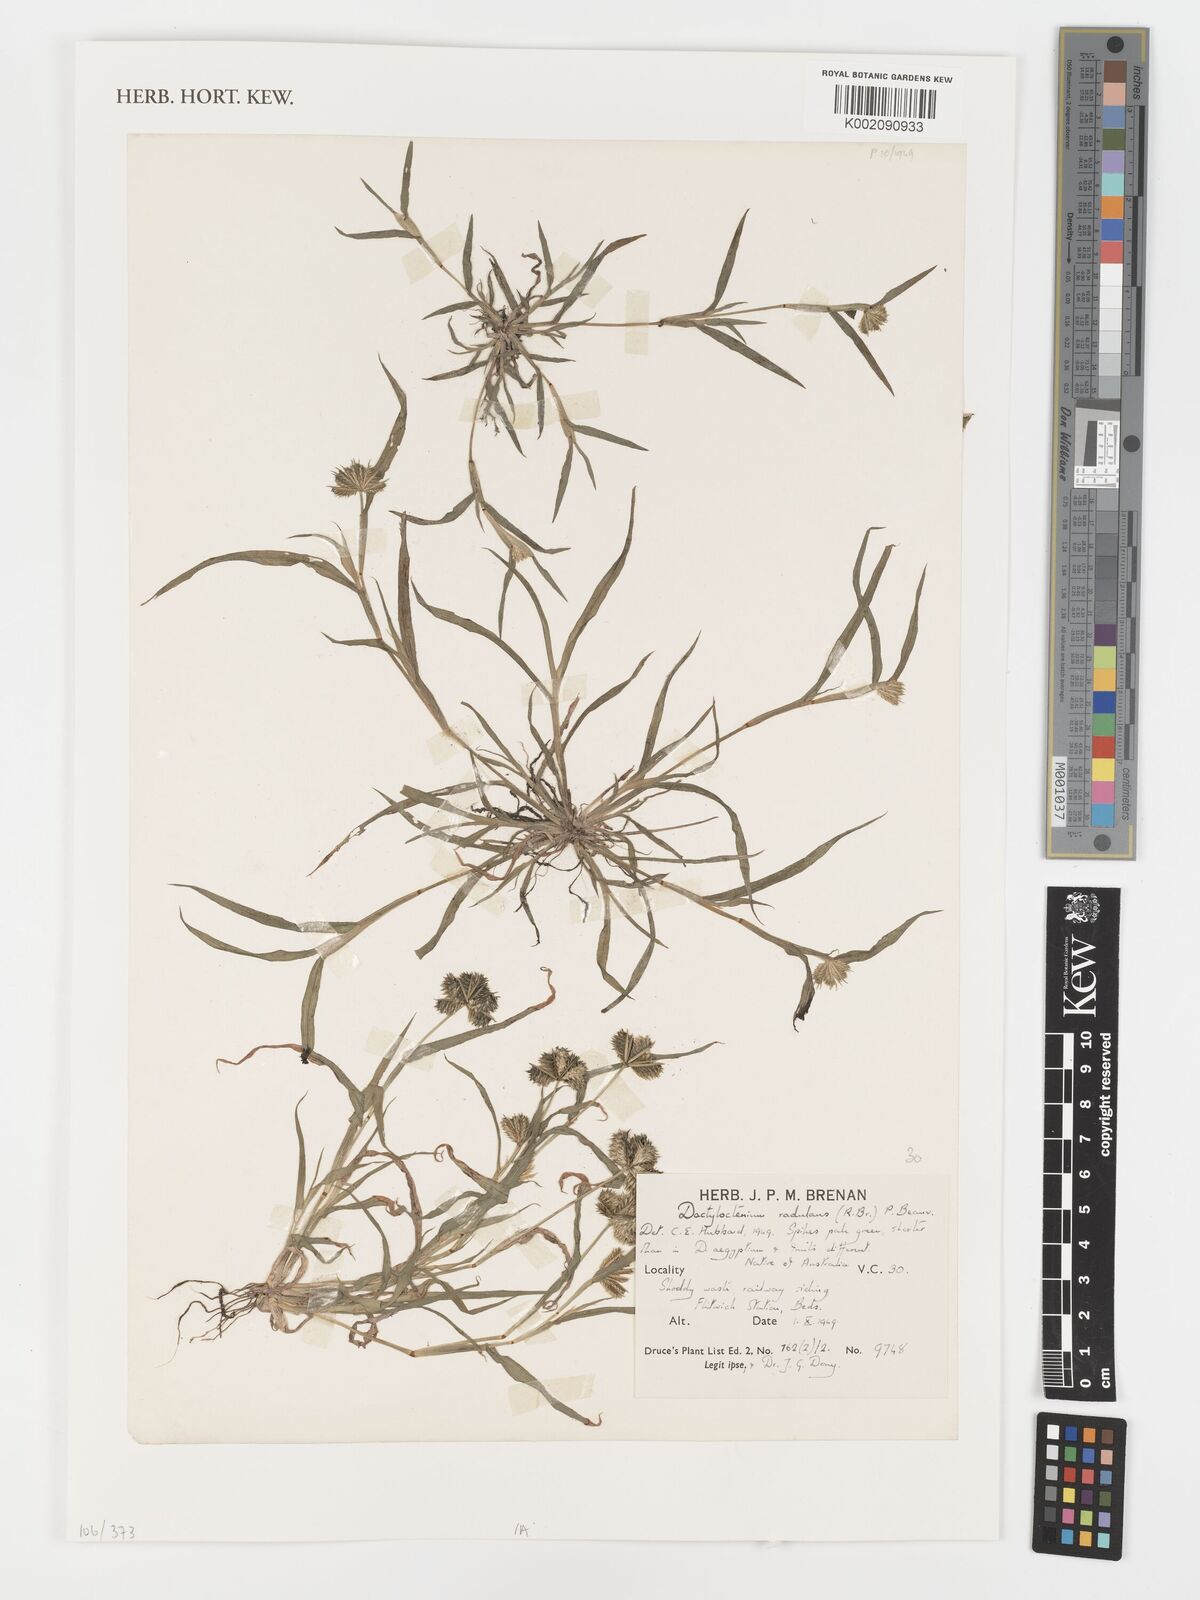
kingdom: Plantae
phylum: Tracheophyta
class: Liliopsida
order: Poales
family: Poaceae
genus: Dactyloctenium
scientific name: Dactyloctenium radulans
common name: Button-grass
